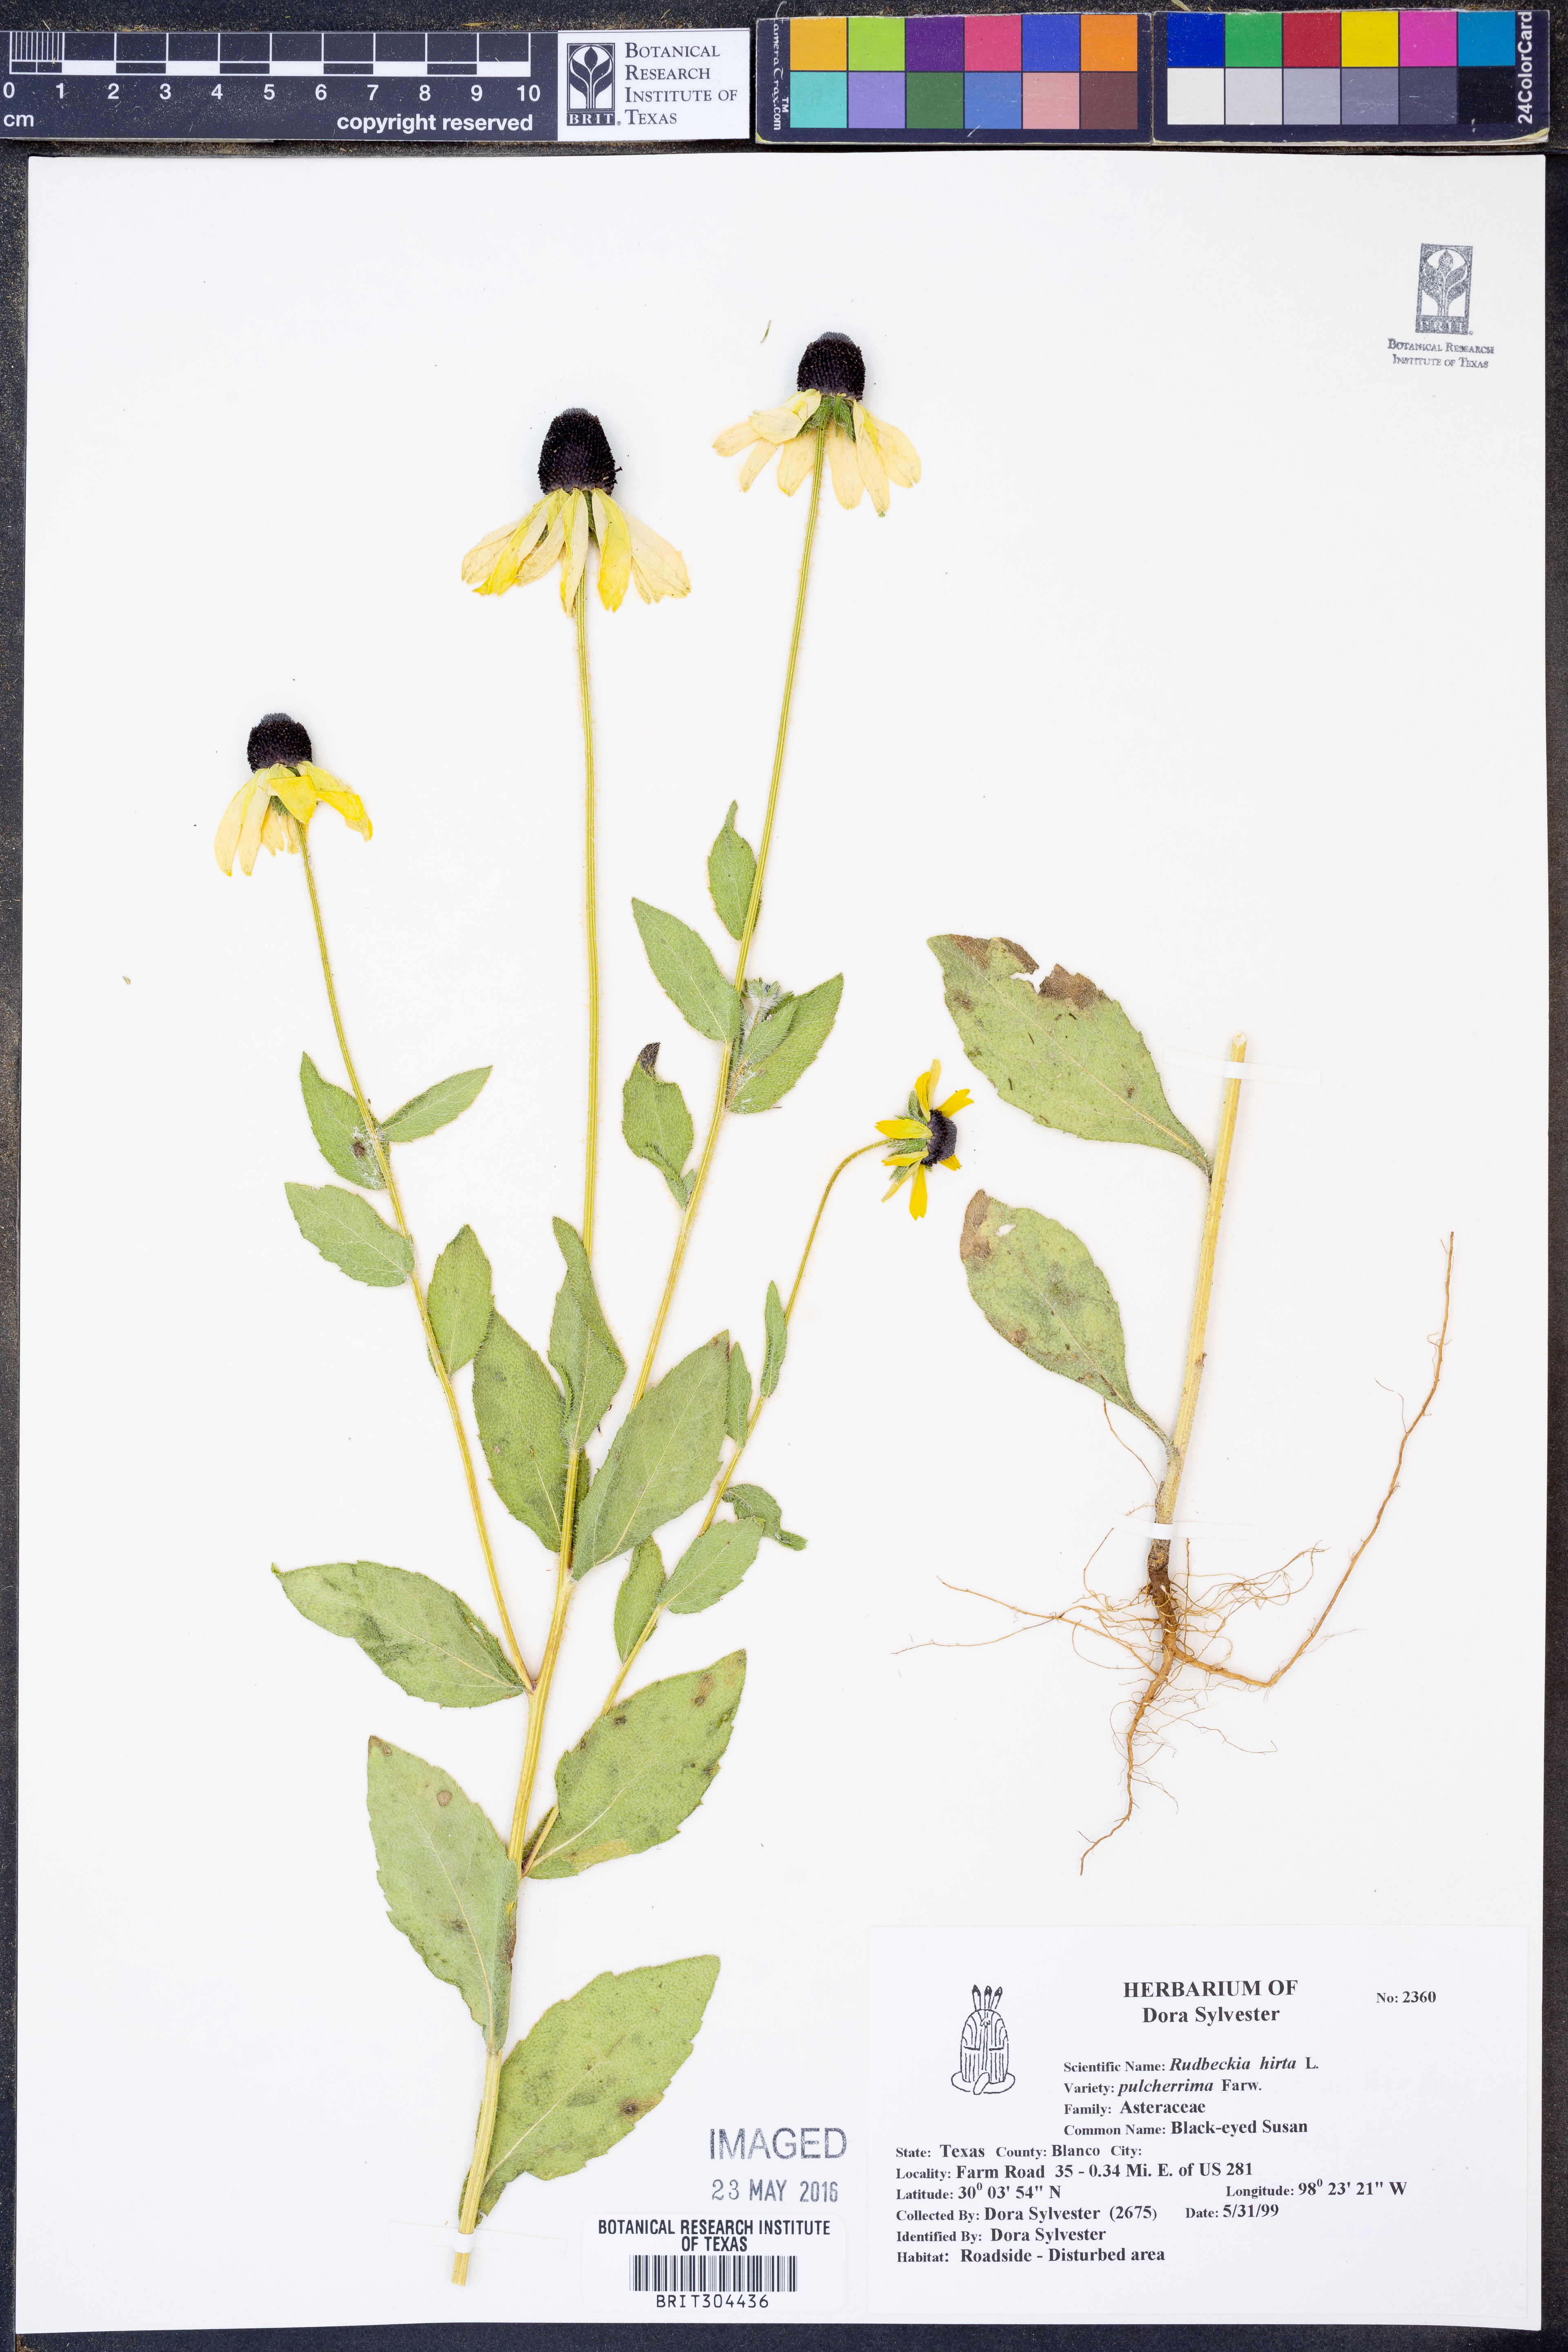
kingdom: Plantae
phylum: Tracheophyta
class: Magnoliopsida
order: Asterales
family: Asteraceae
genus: Rudbeckia
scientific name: Rudbeckia hirta
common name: Black-eyed-susan
